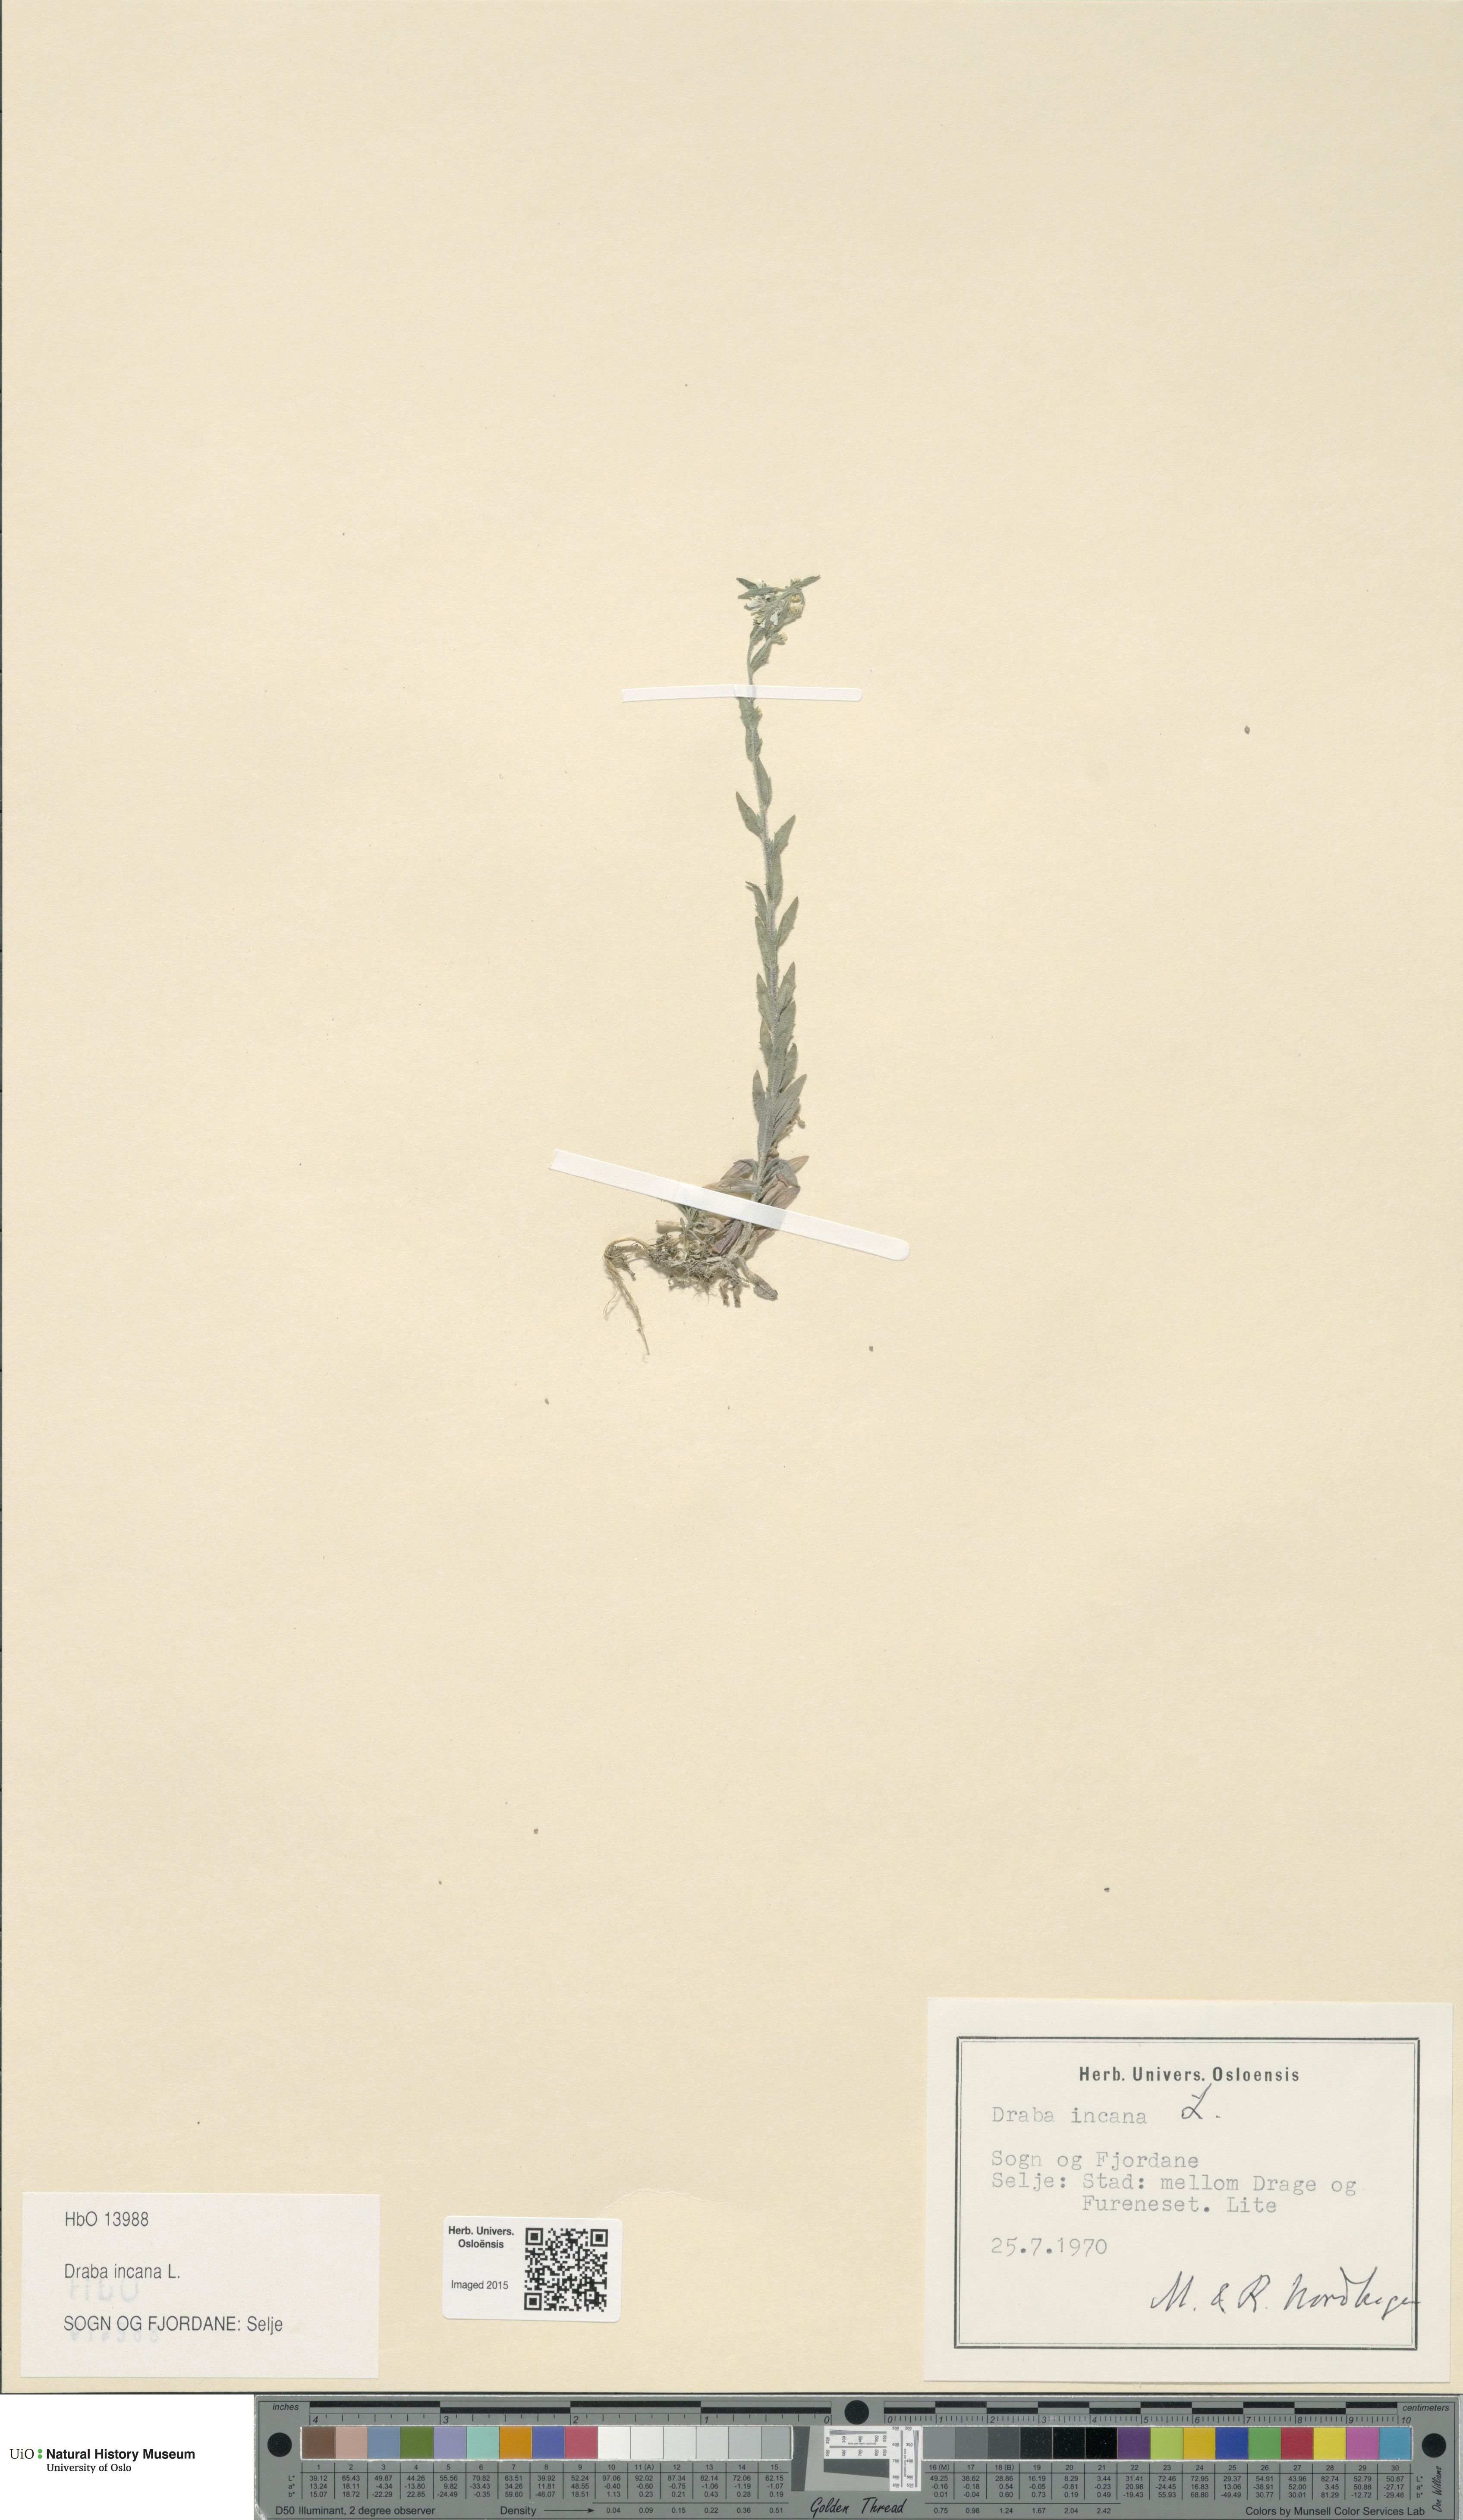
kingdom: Plantae
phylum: Tracheophyta
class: Magnoliopsida
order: Brassicales
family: Brassicaceae
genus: Draba
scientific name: Draba incana
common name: Hoary whitlow-grass
